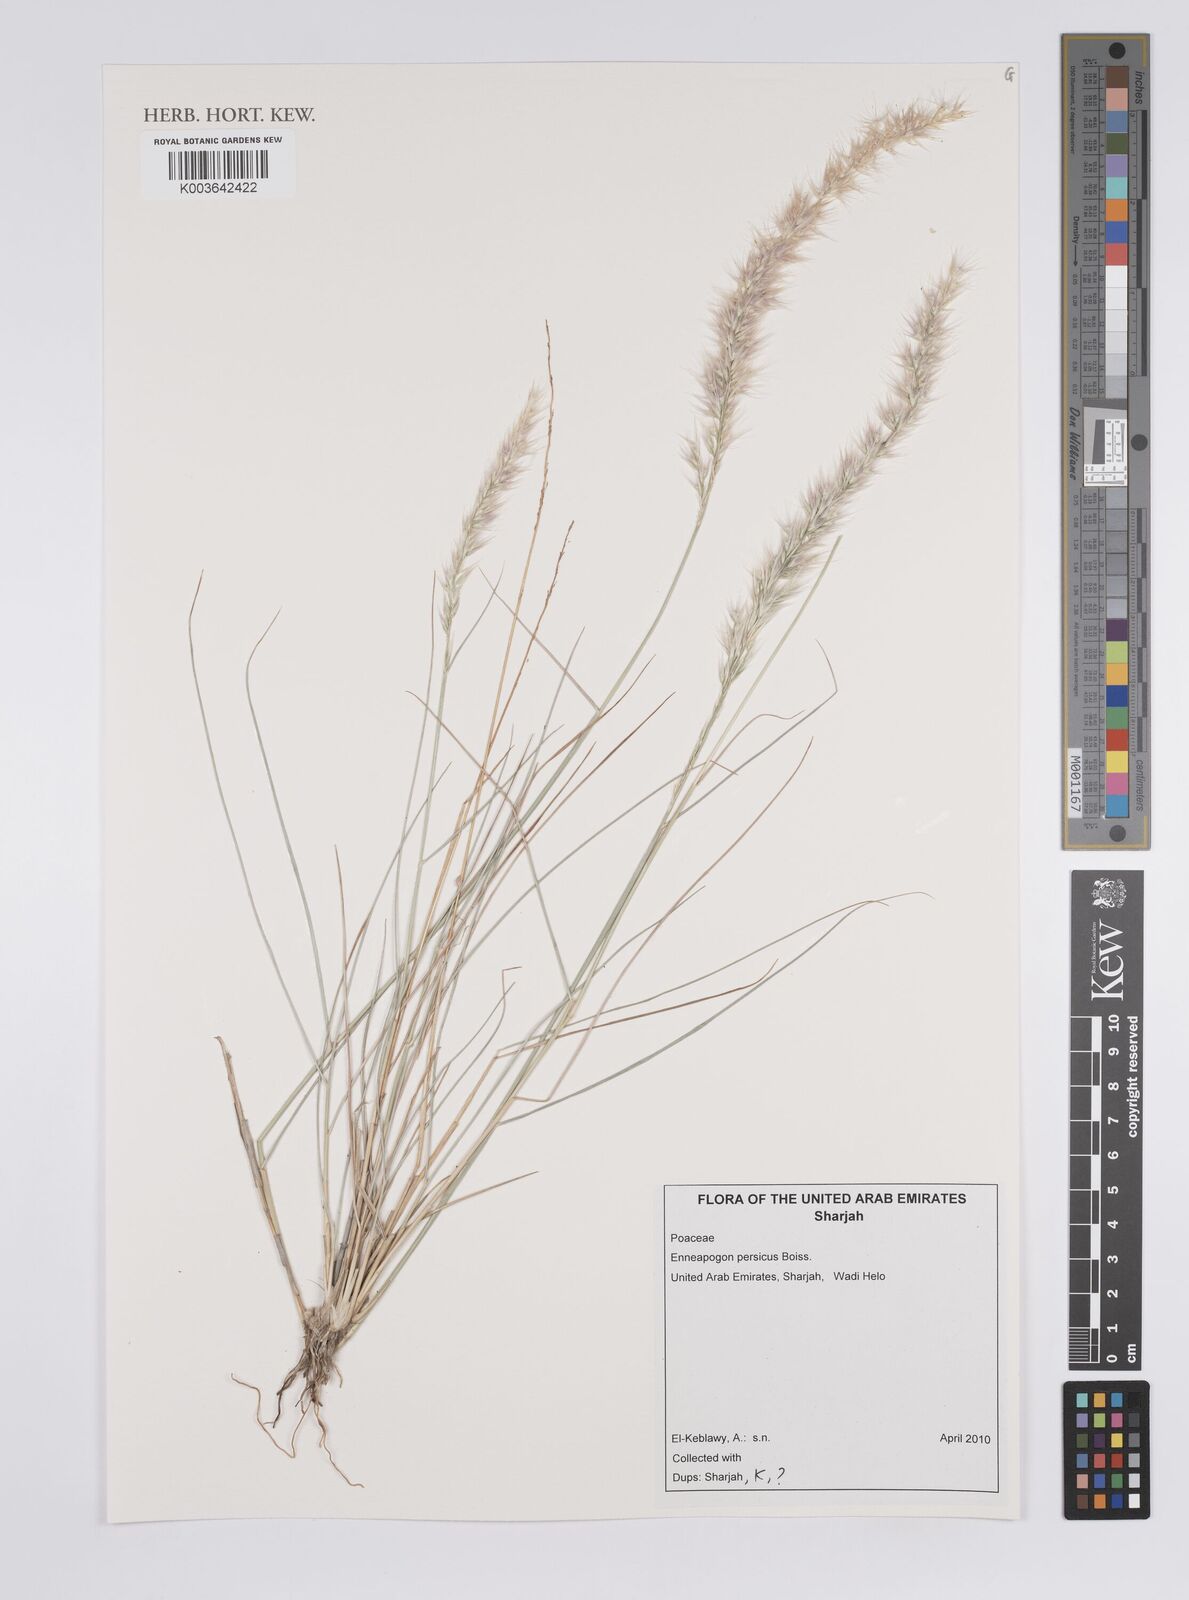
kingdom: Plantae
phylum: Tracheophyta
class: Liliopsida
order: Poales
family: Poaceae
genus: Enneapogon
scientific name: Enneapogon persicus
